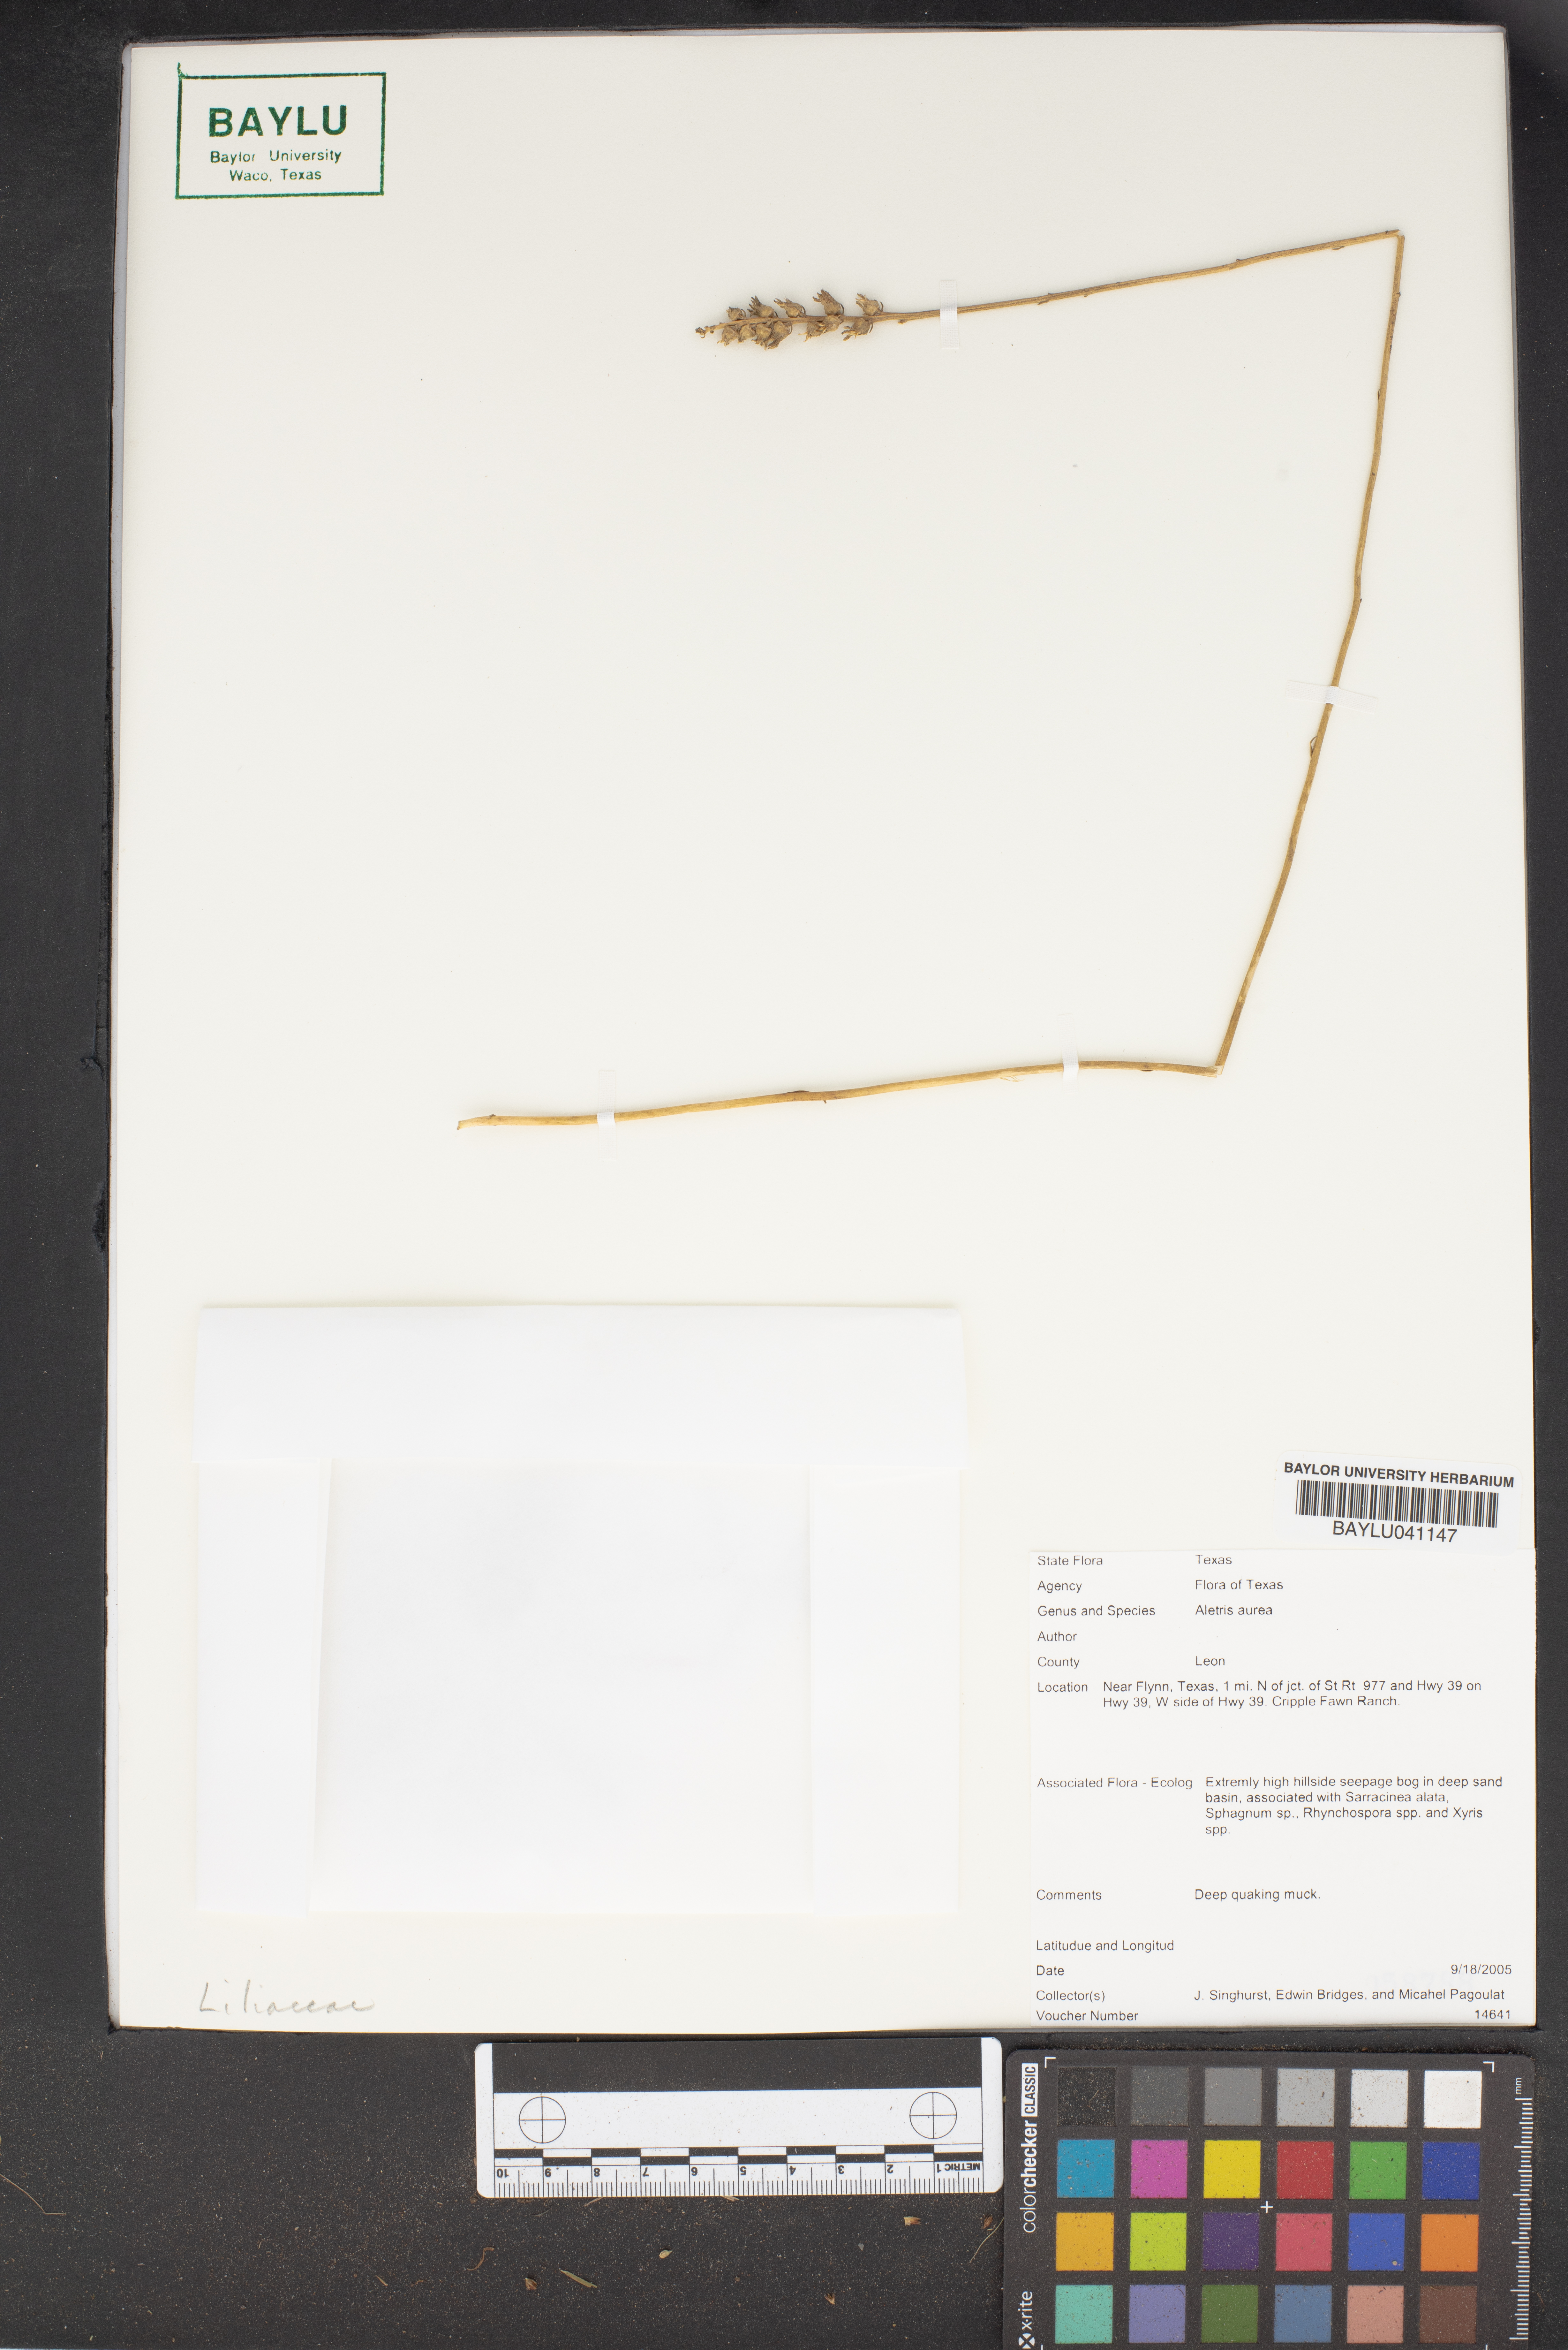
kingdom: Plantae
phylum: Tracheophyta
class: Liliopsida
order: Dioscoreales
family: Nartheciaceae
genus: Aletris
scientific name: Aletris aurea
